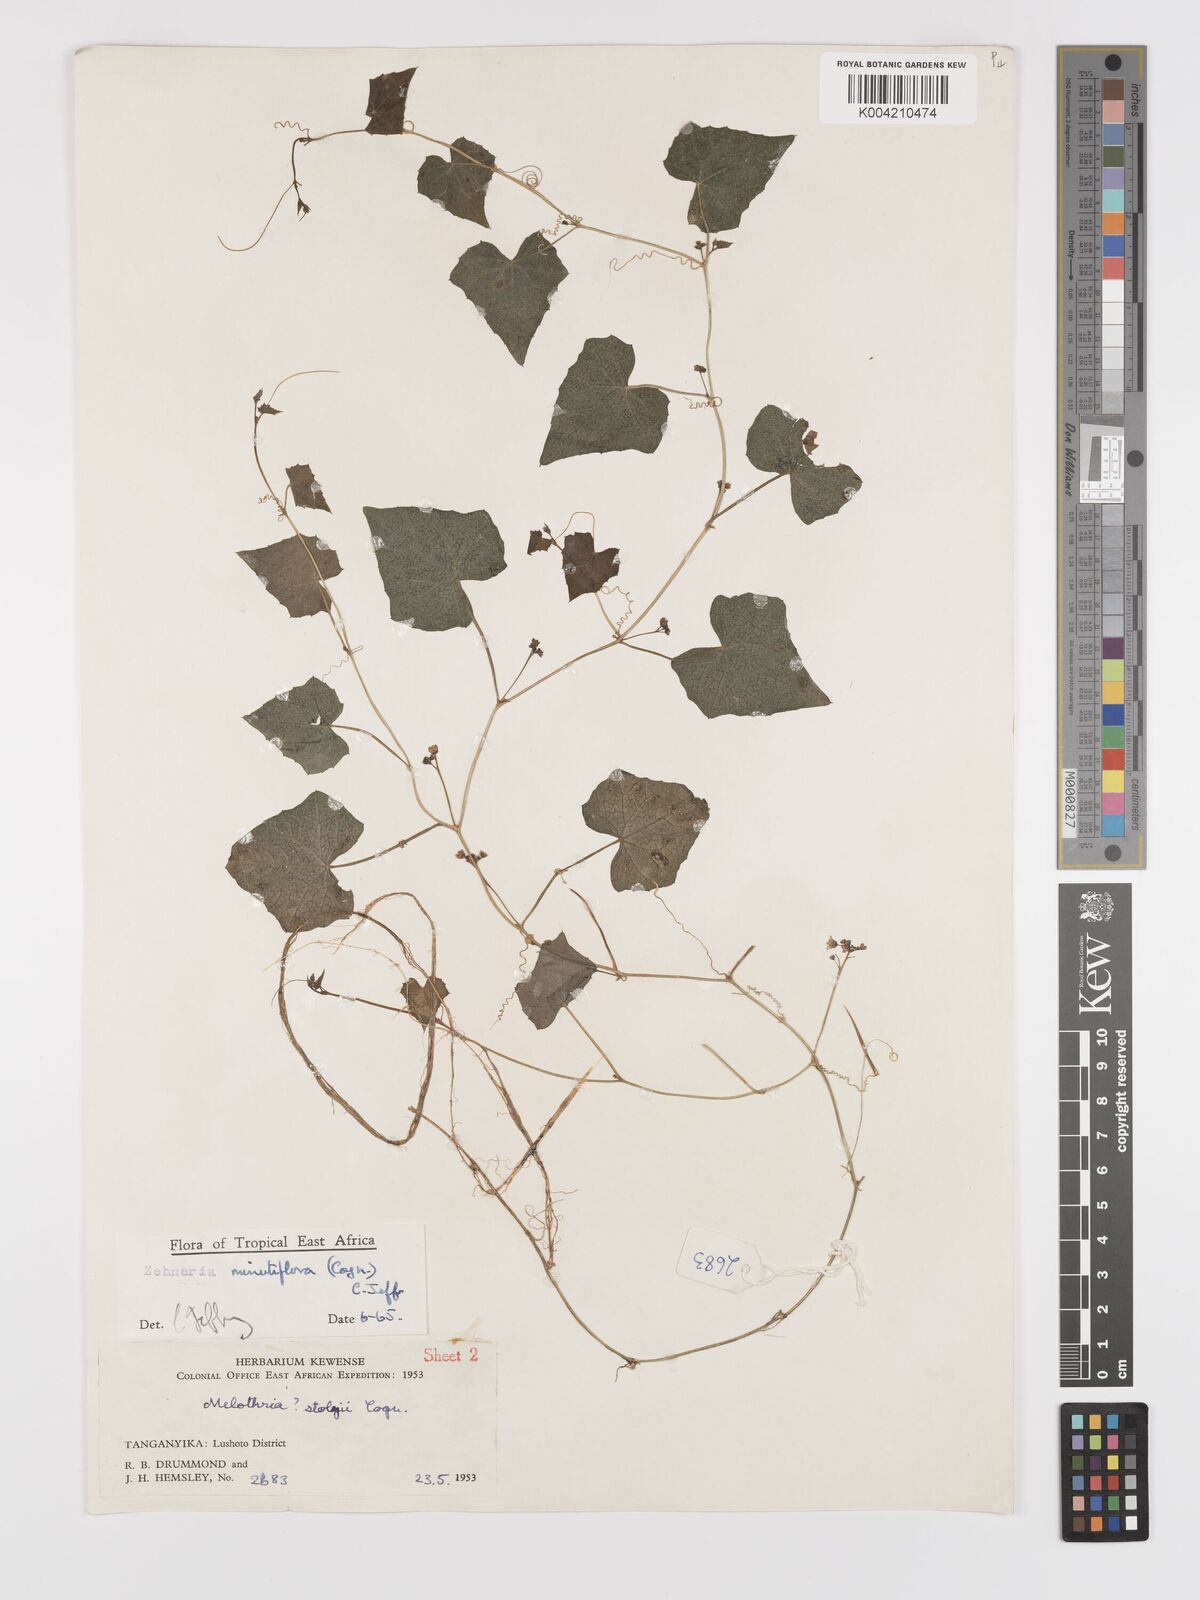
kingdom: Plantae
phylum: Tracheophyta
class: Magnoliopsida
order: Cucurbitales
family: Cucurbitaceae
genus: Zehneria
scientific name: Zehneria minutiflora
